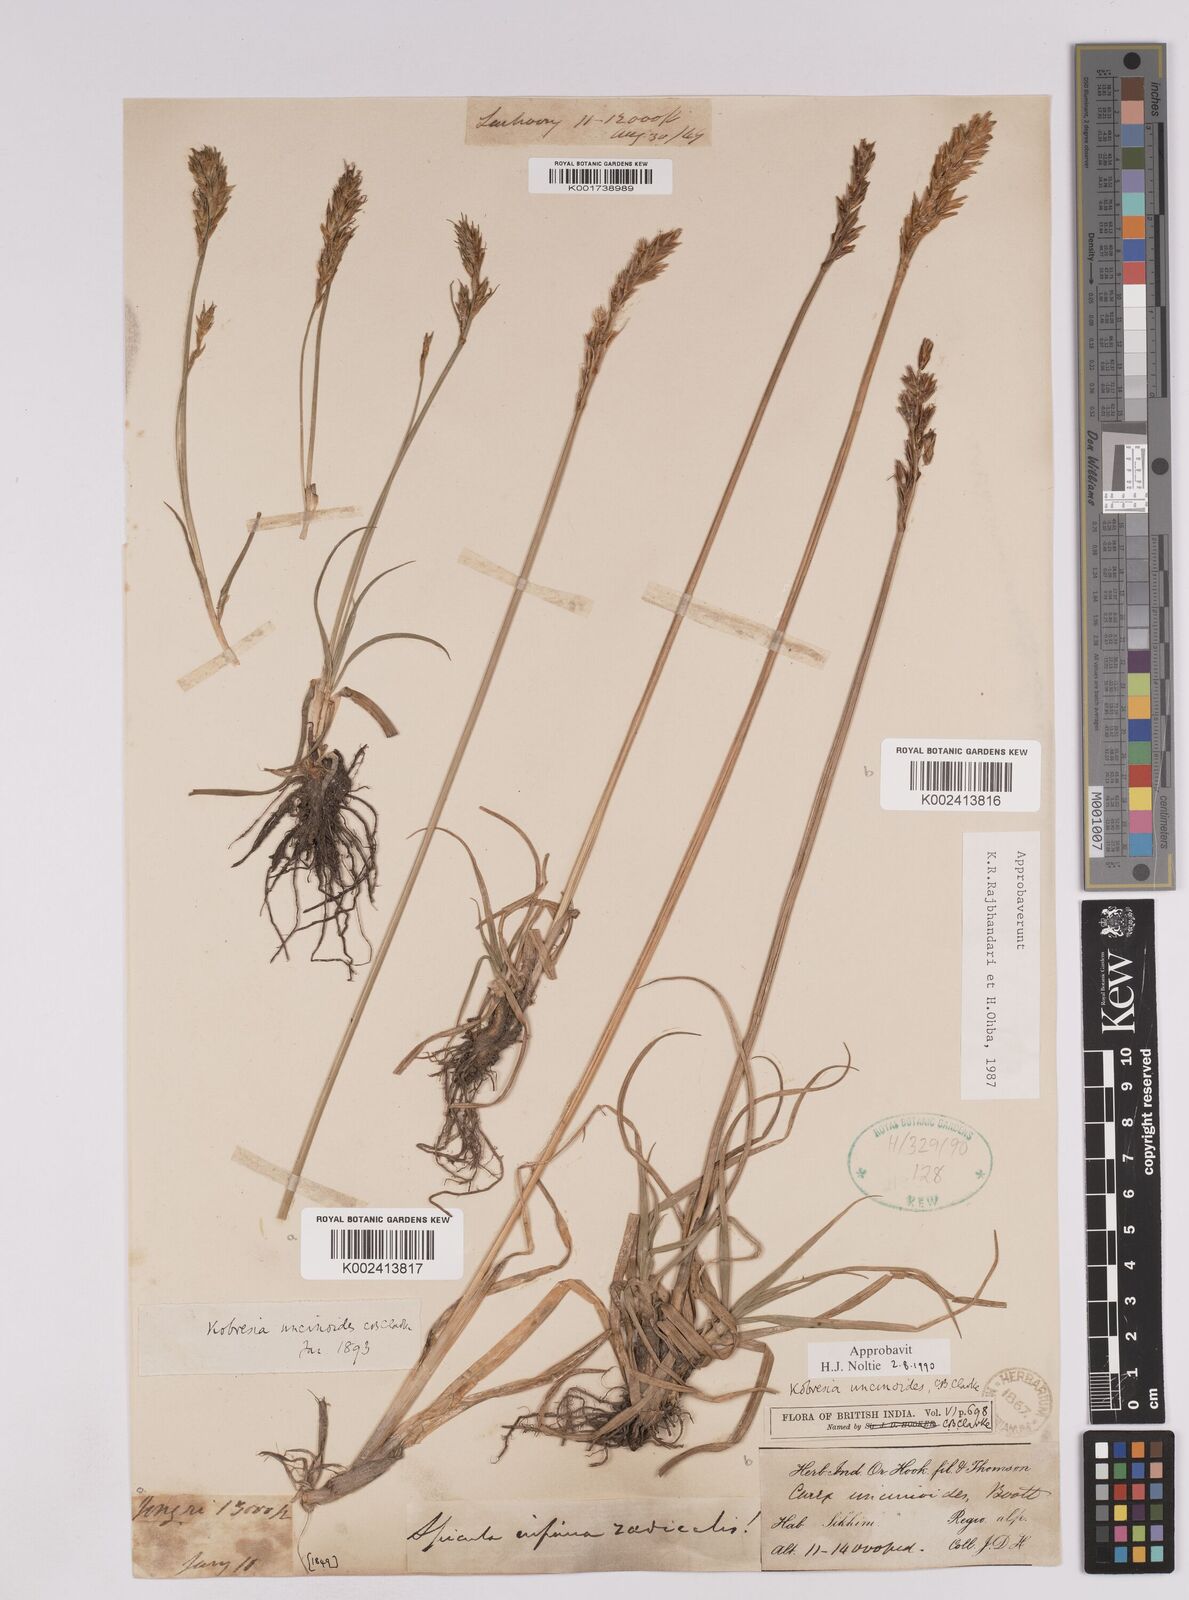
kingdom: Plantae
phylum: Tracheophyta
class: Liliopsida
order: Poales
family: Cyperaceae
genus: Carex
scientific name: Carex uncinioides
